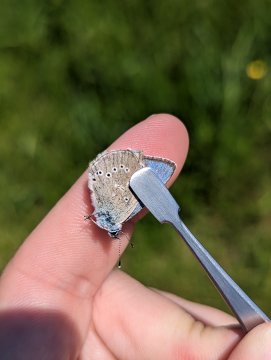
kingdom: Animalia
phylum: Arthropoda
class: Insecta
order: Lepidoptera
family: Lycaenidae
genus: Glaucopsyche
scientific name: Glaucopsyche lygdamus
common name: Silvery Blue
